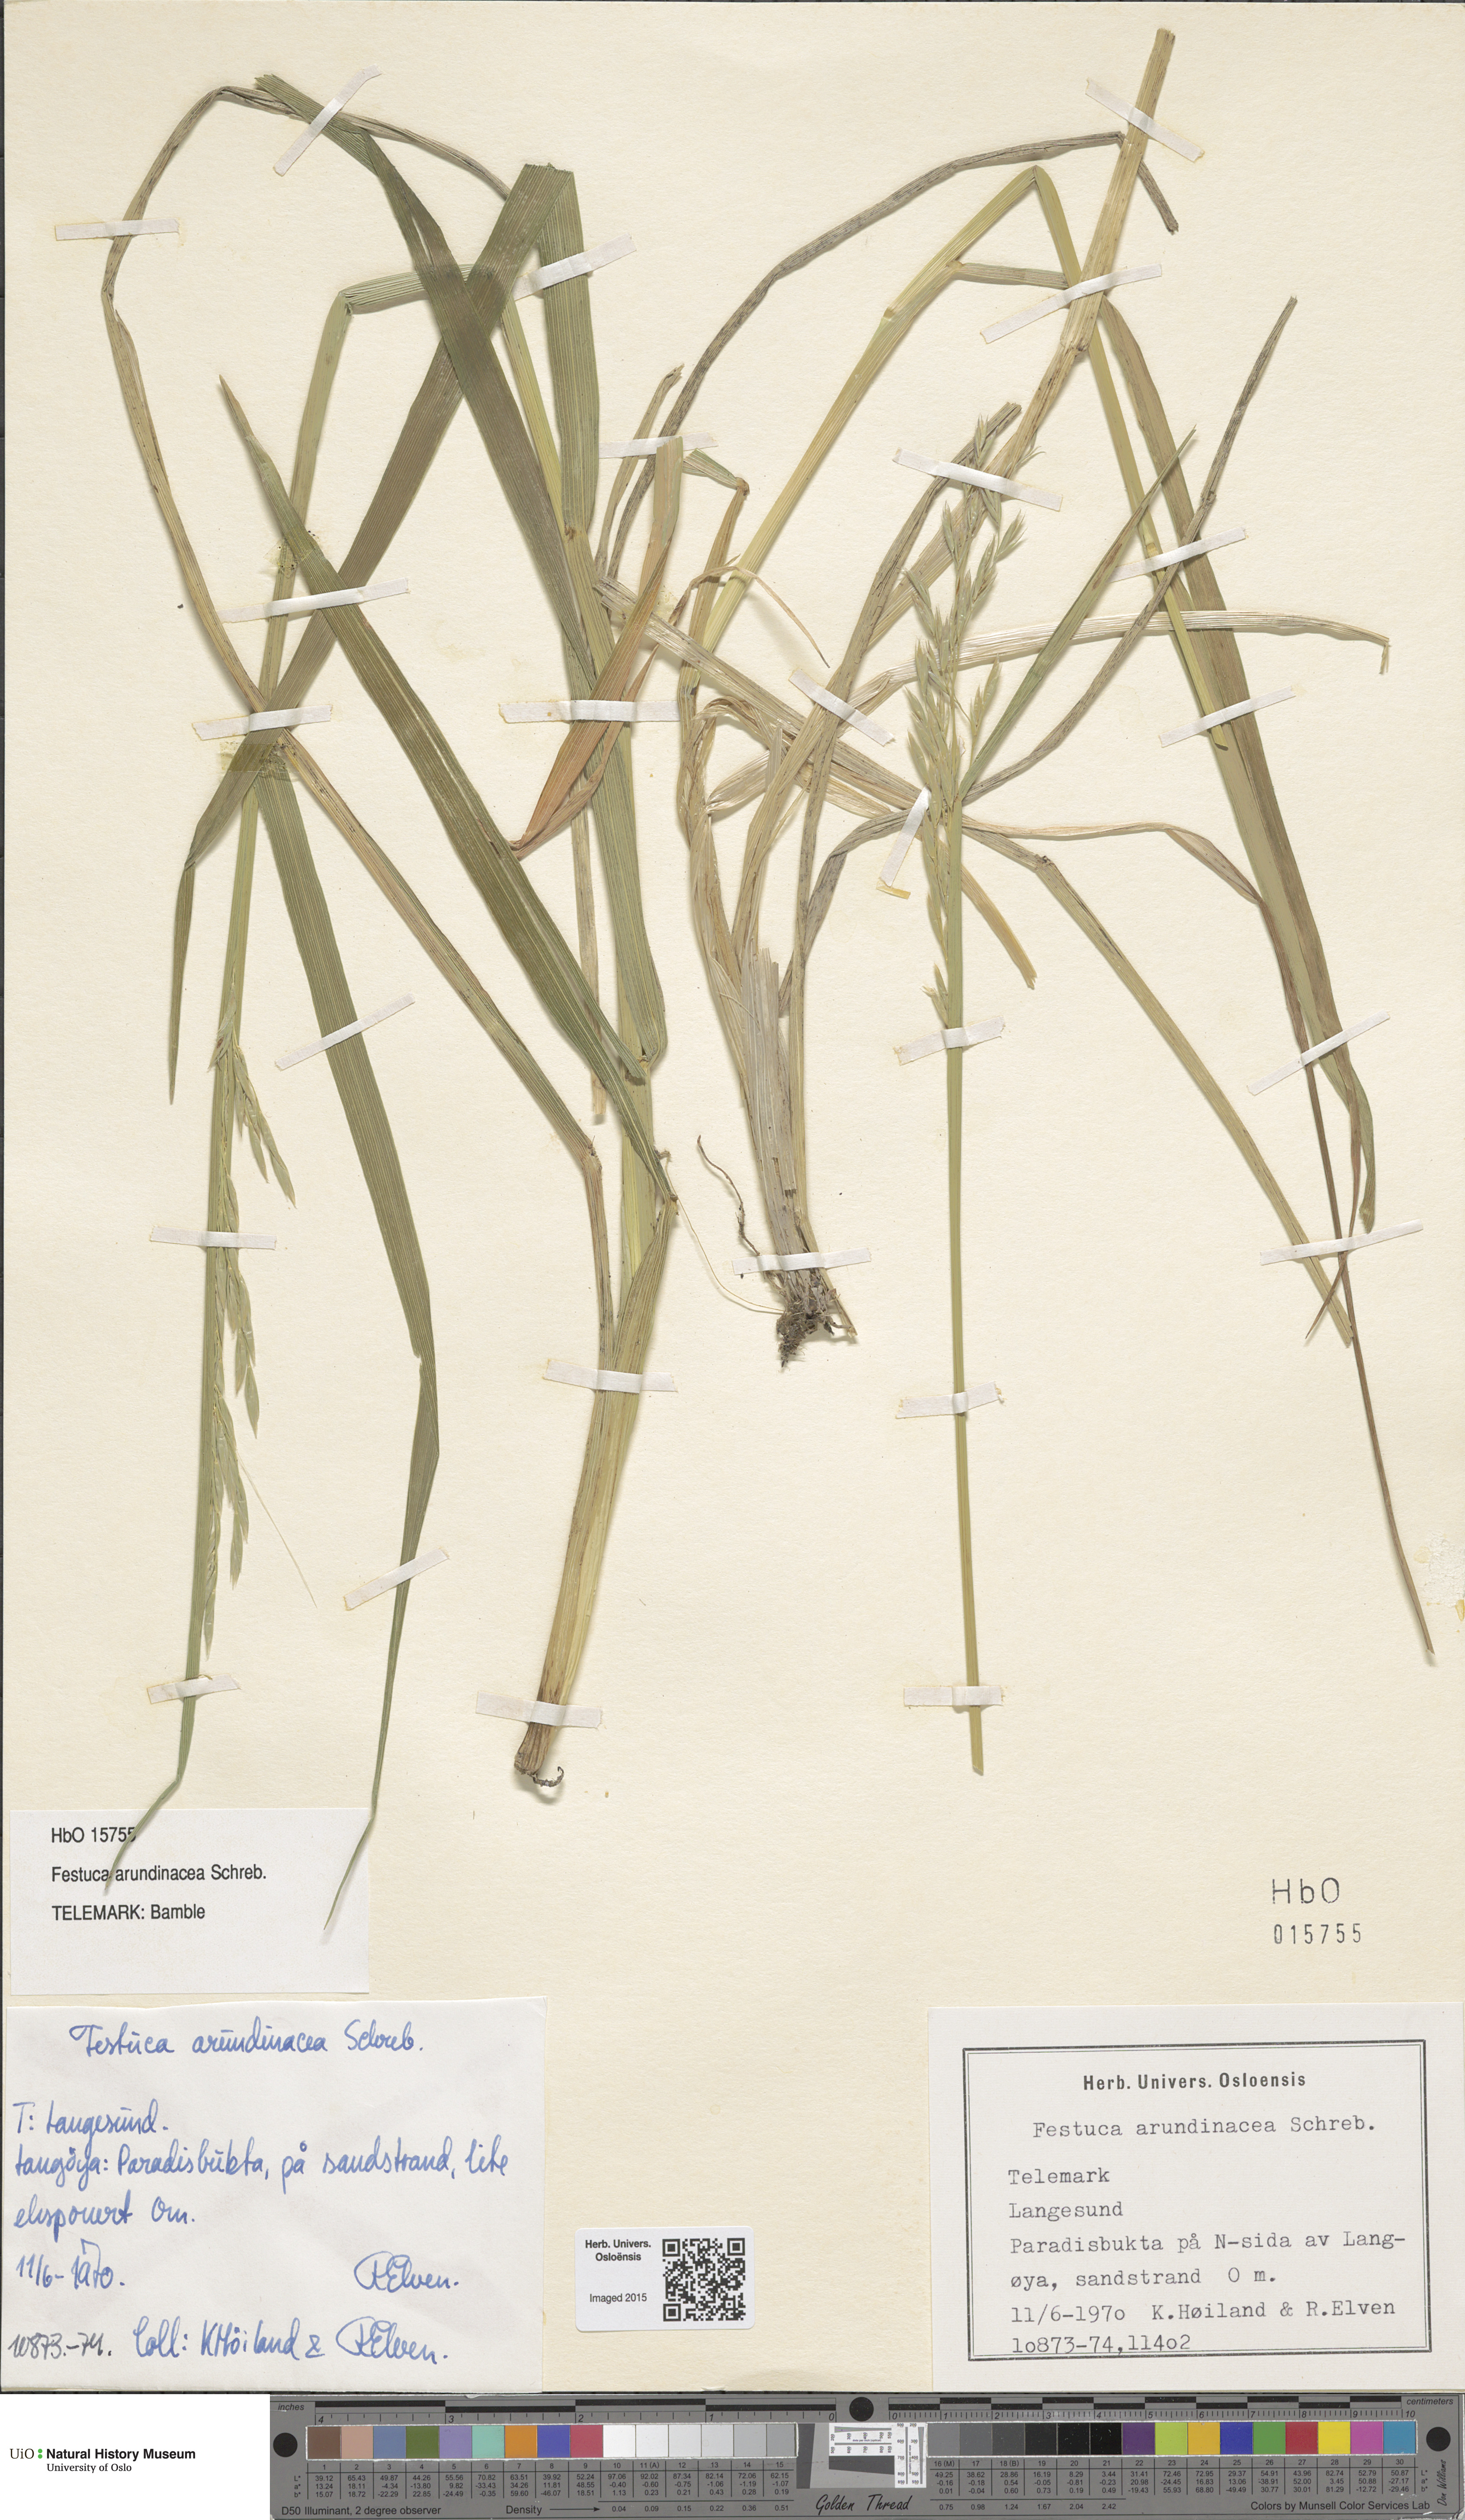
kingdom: Plantae
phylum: Tracheophyta
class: Liliopsida
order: Poales
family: Poaceae
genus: Lolium
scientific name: Lolium arundinaceum
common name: Reed fescue
